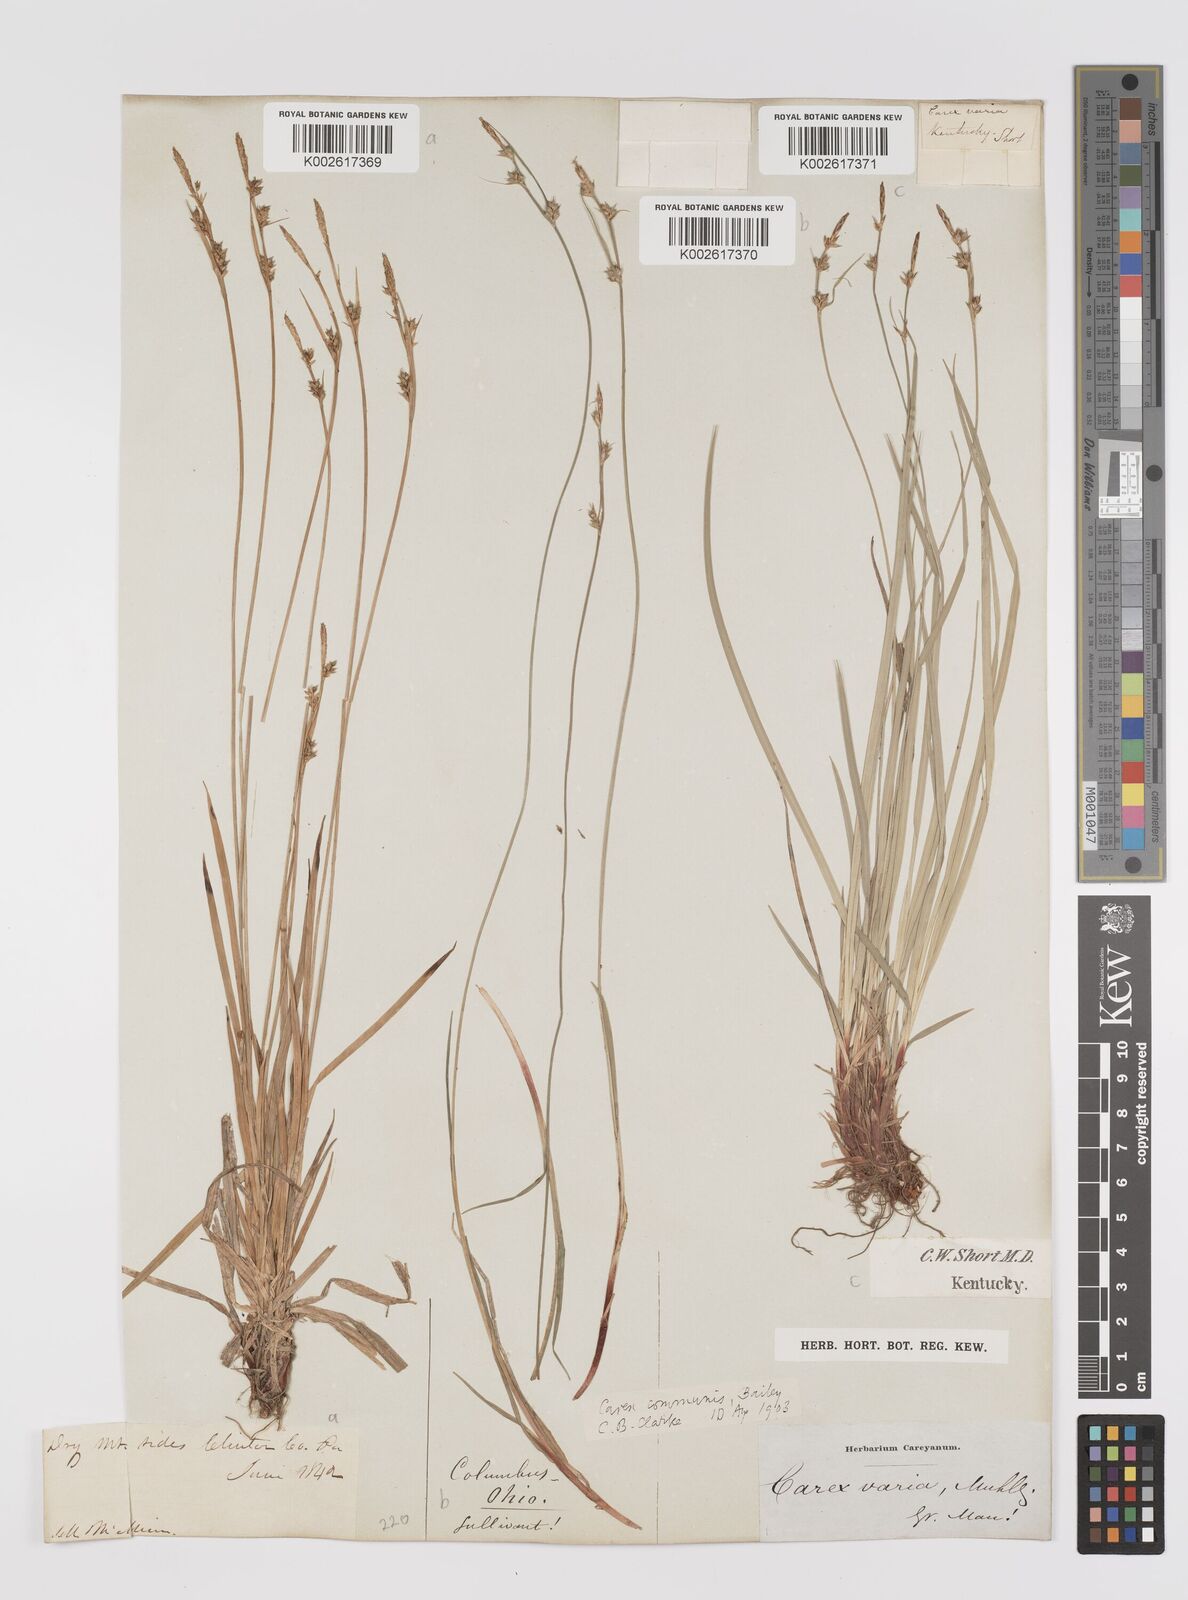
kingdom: Plantae
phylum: Tracheophyta
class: Liliopsida
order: Poales
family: Cyperaceae
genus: Carex
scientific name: Carex communis
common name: Colonial oak sedge
